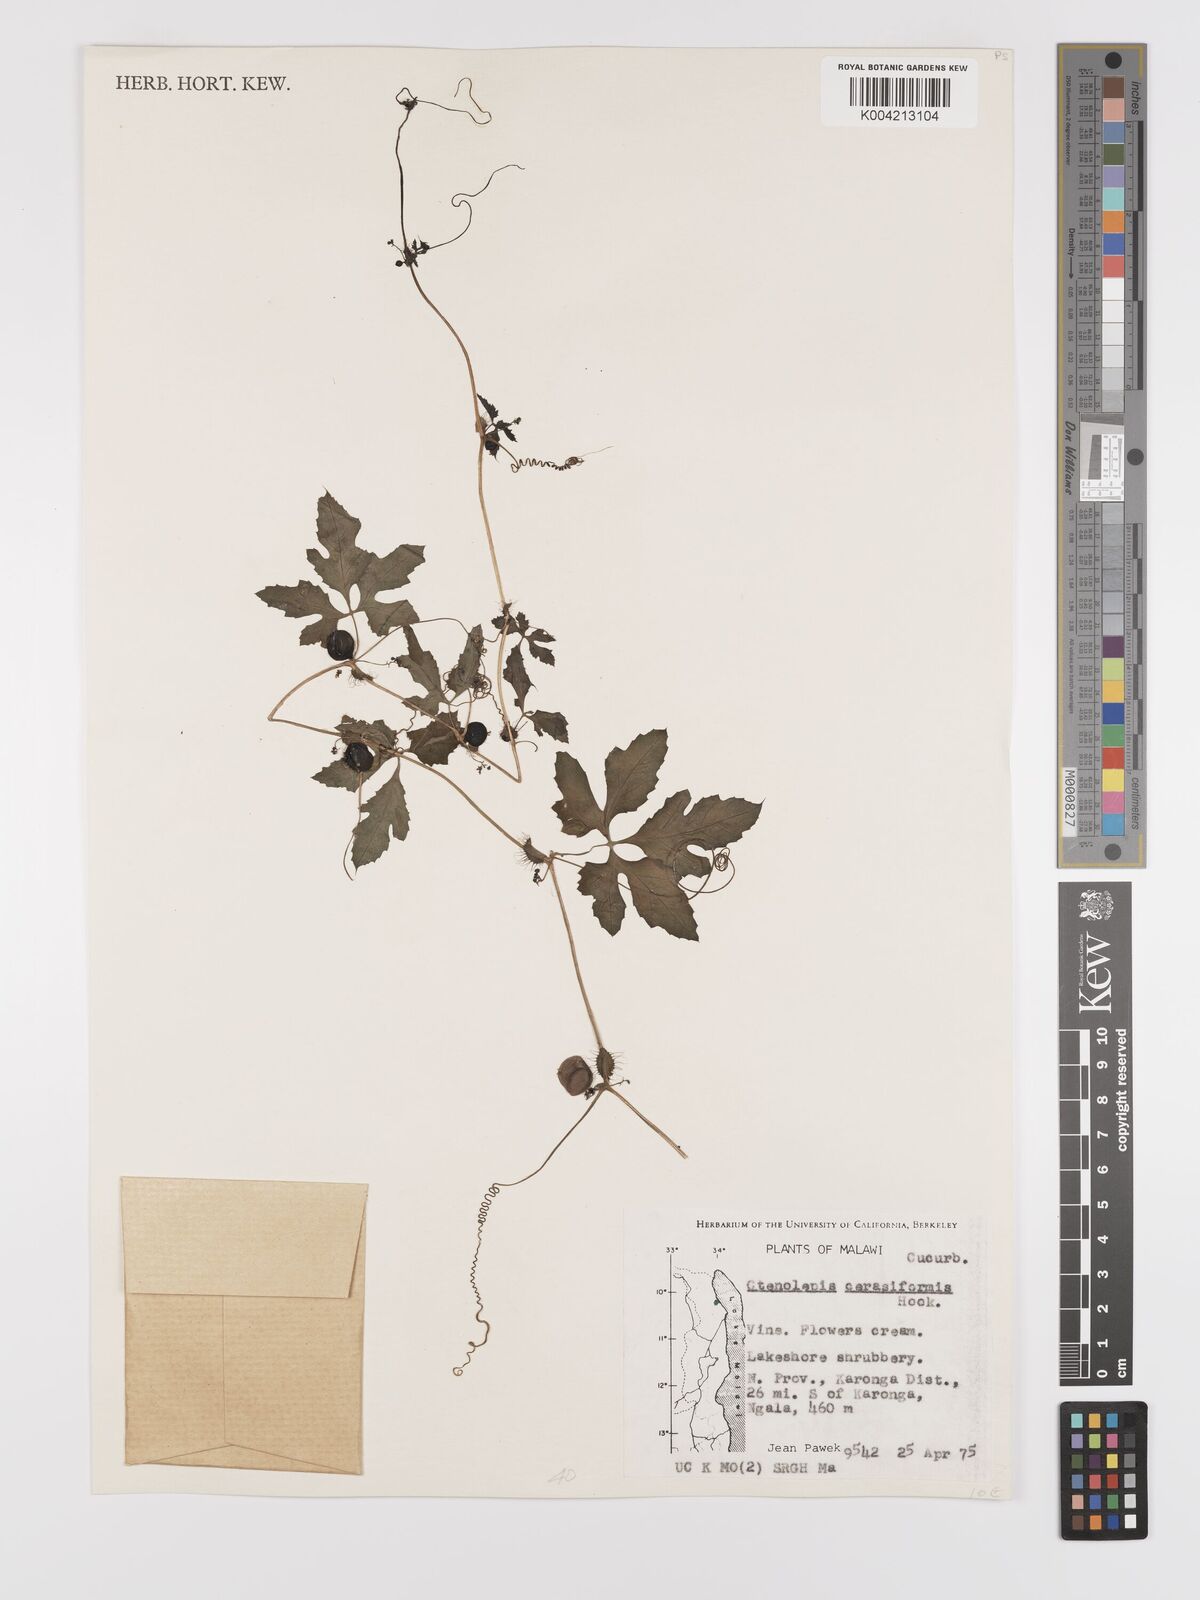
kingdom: Plantae
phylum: Tracheophyta
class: Magnoliopsida
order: Cucurbitales
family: Cucurbitaceae
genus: Blastania
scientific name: Blastania cerasiformis
